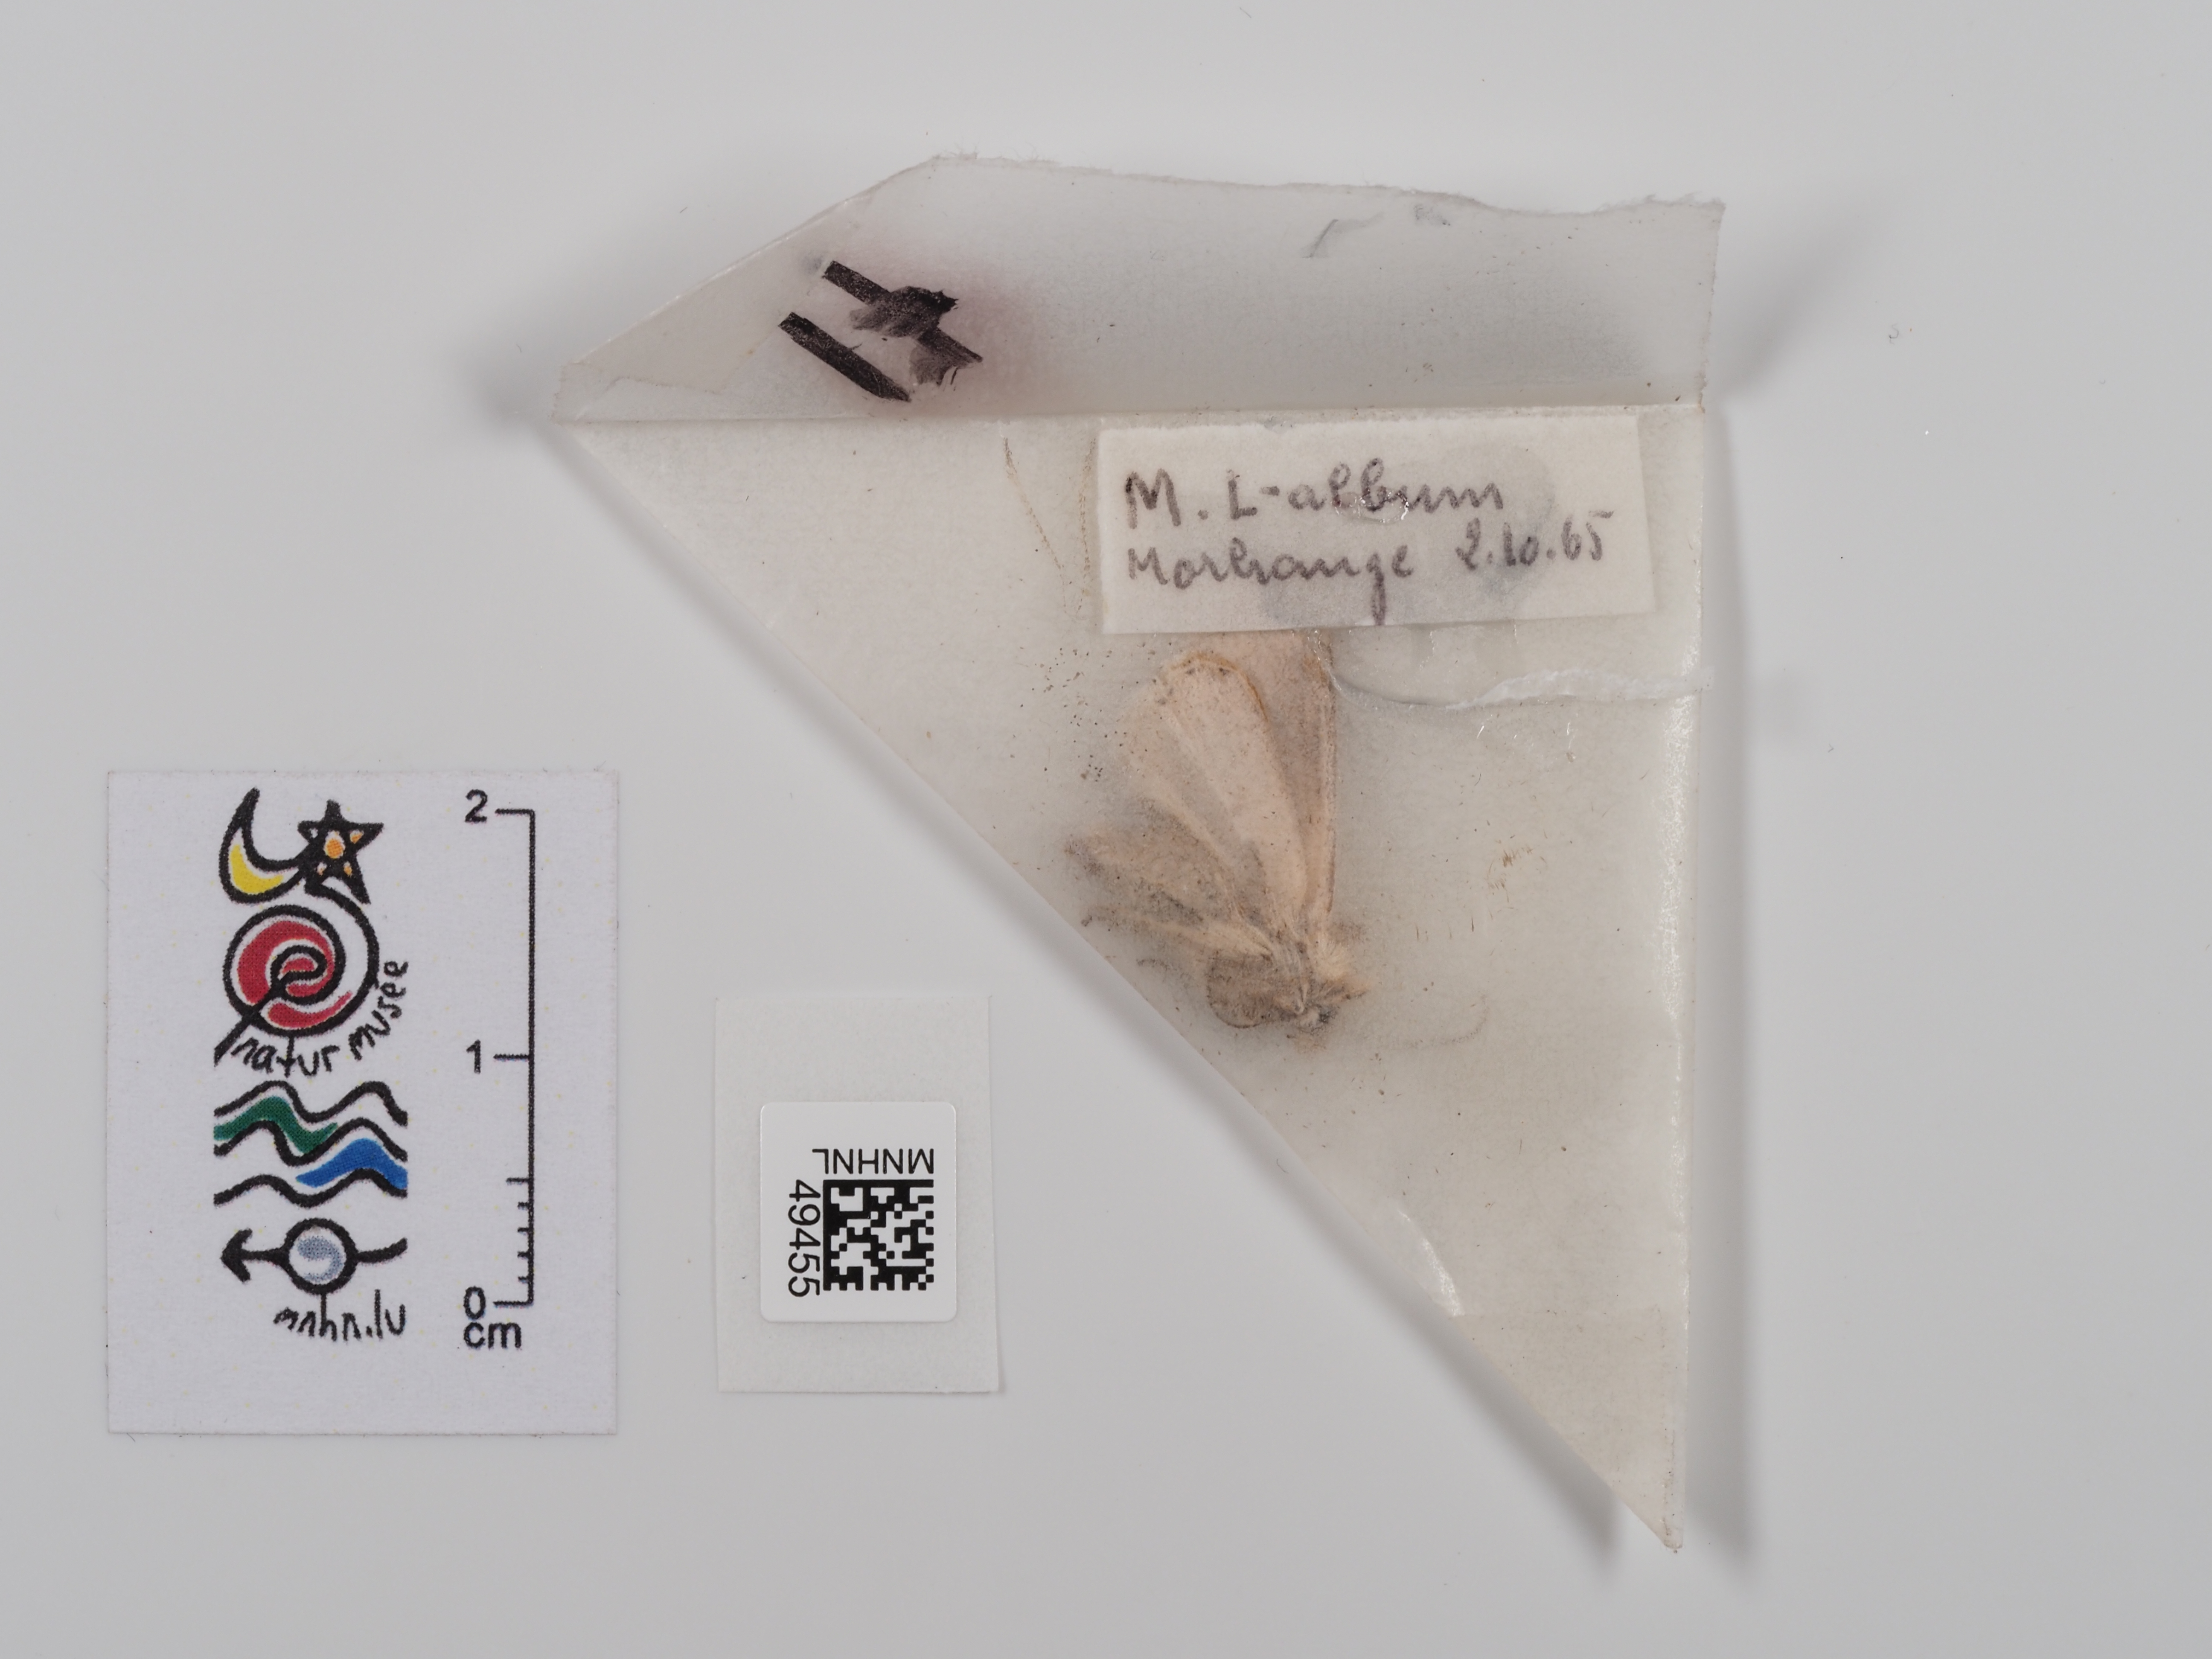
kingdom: Animalia
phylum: Arthropoda
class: Insecta
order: Lepidoptera
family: Noctuidae
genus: Mythimna
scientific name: Mythimna l-album
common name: L-album wainscot
